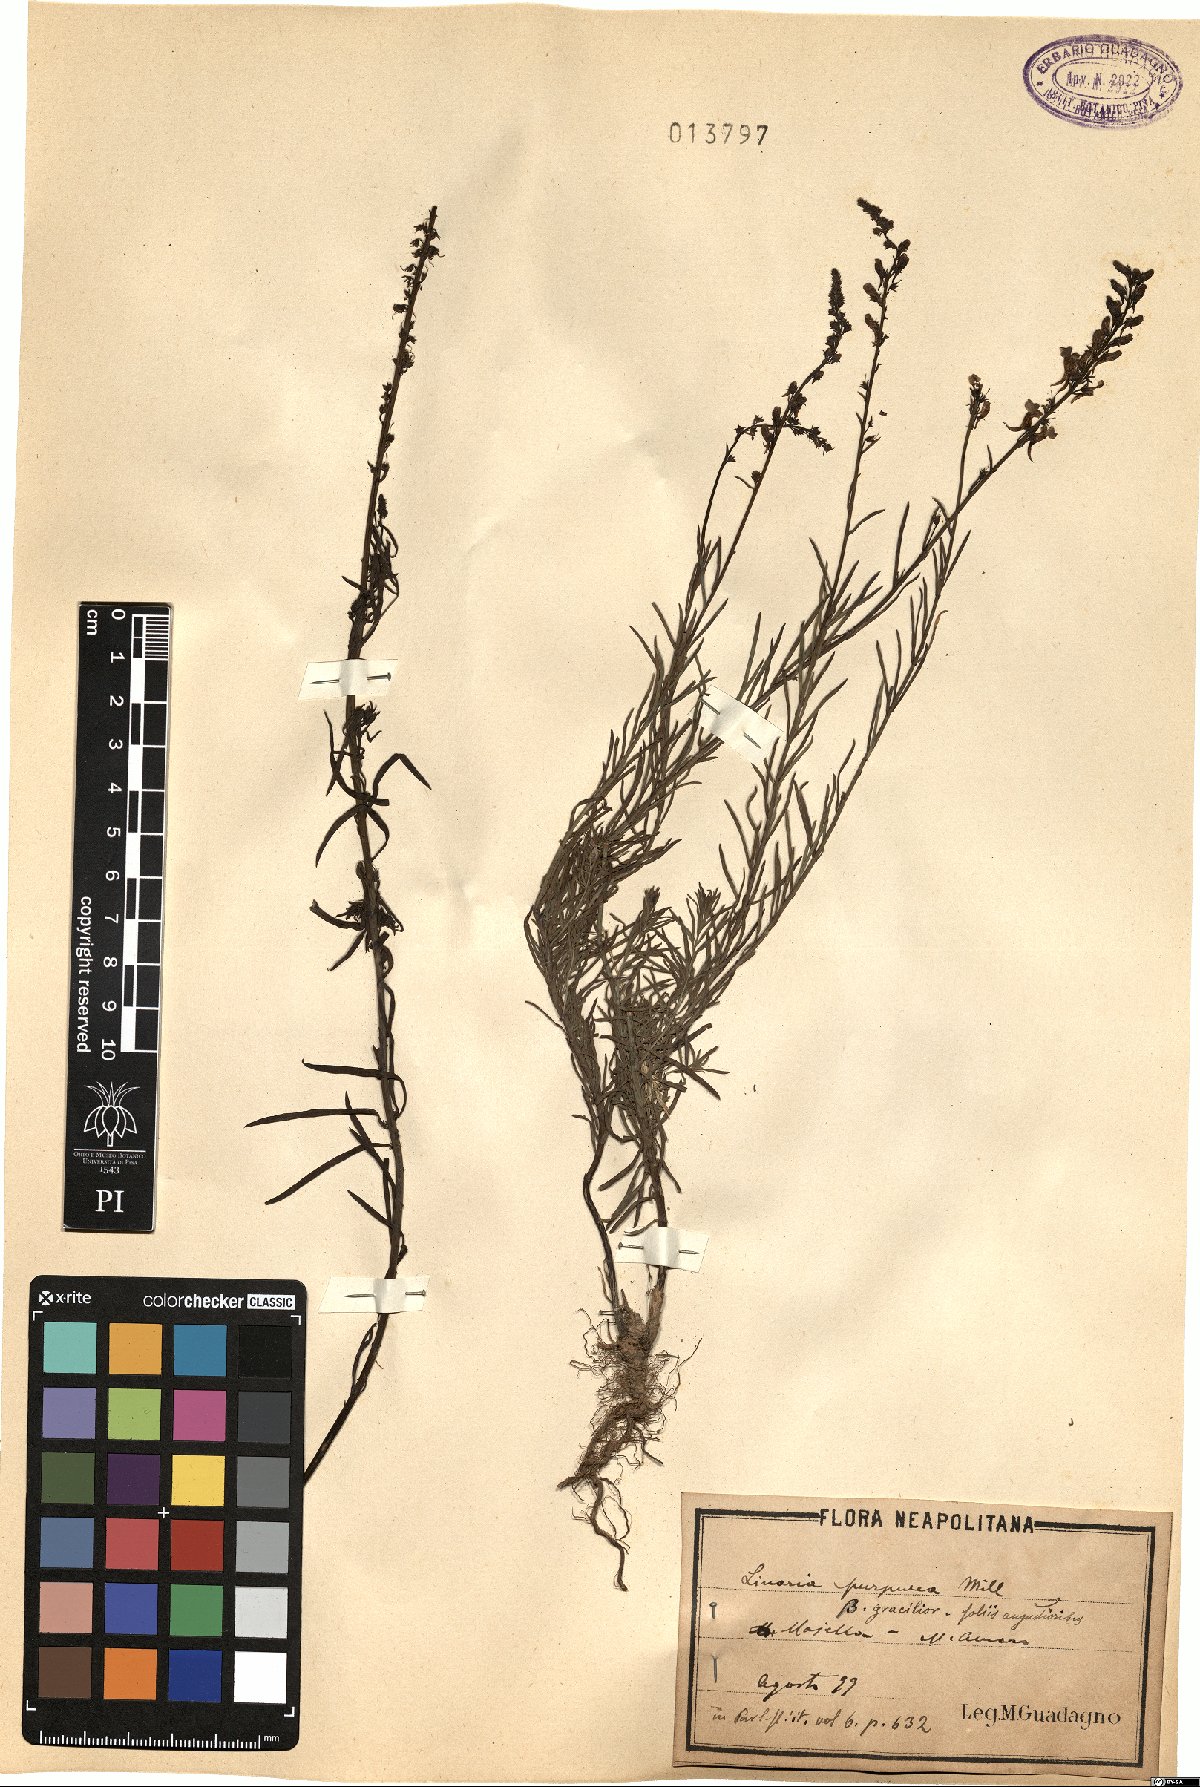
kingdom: Plantae
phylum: Tracheophyta
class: Magnoliopsida
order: Lamiales
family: Plantaginaceae
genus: Linaria
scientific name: Linaria purpurea
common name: Purple toadflax
